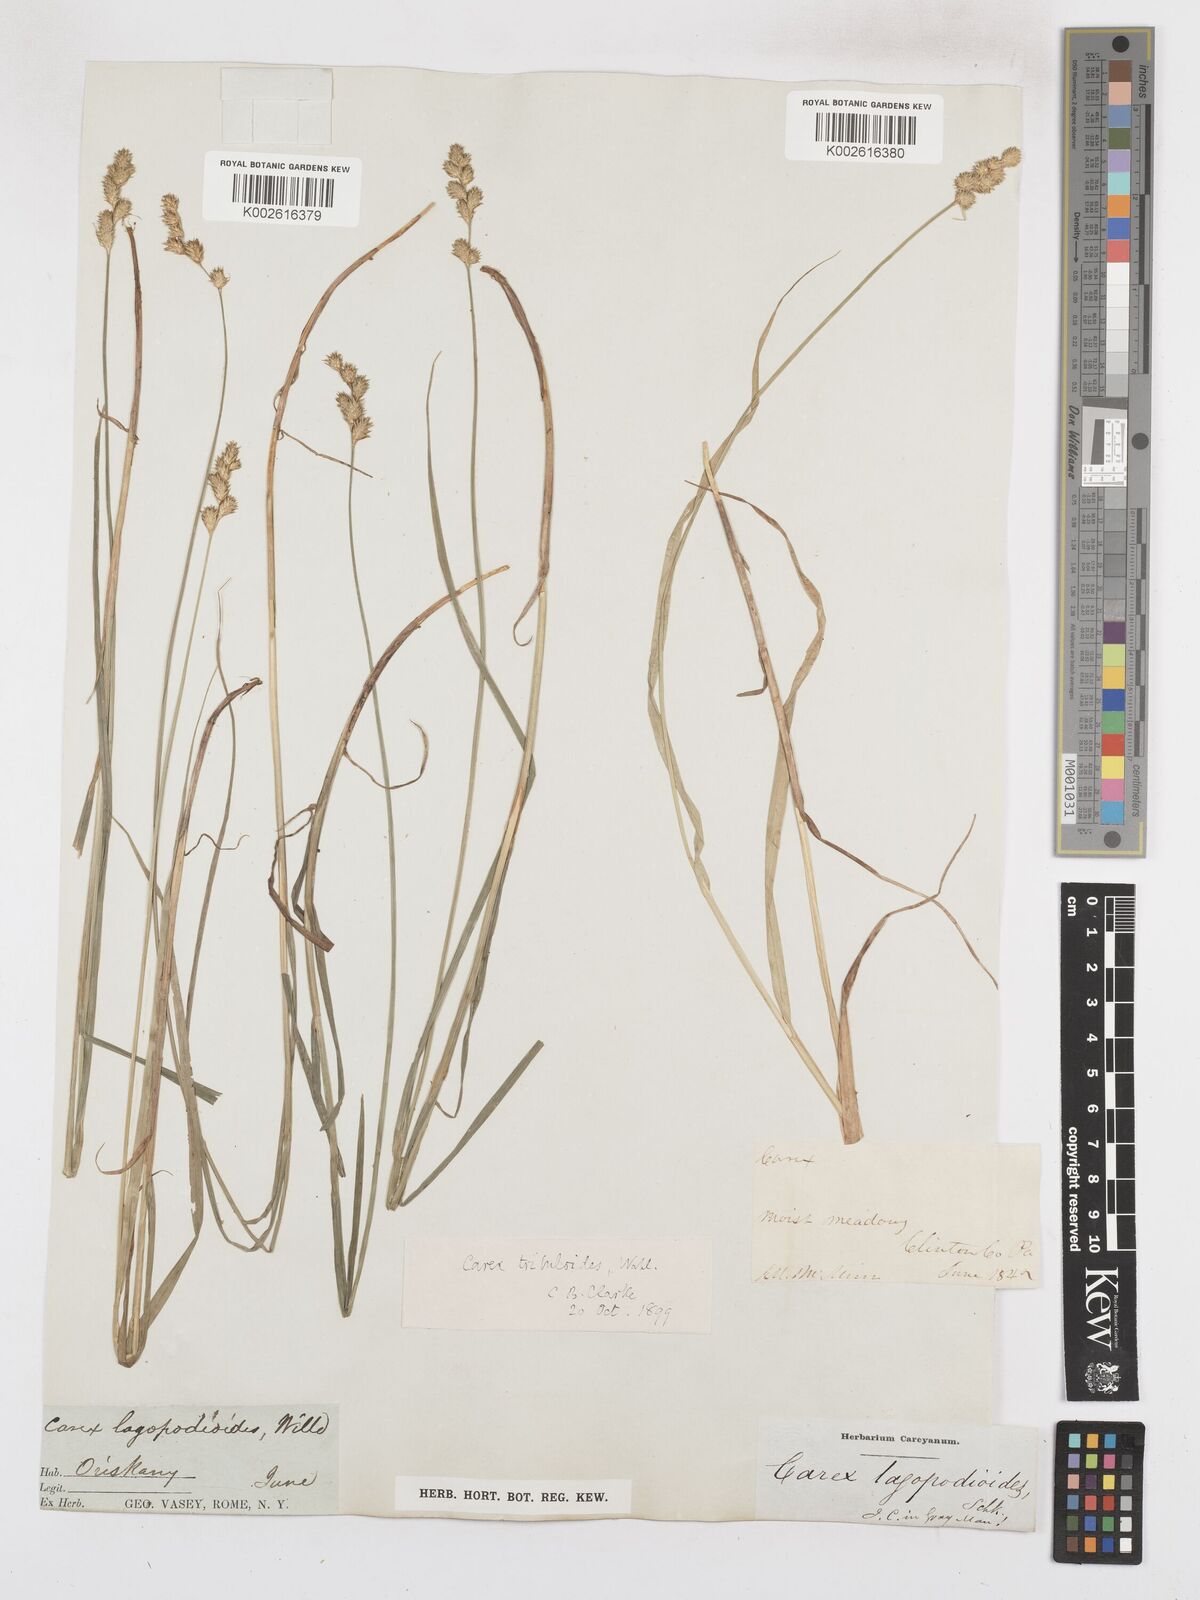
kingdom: Plantae
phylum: Tracheophyta
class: Liliopsida
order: Poales
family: Cyperaceae
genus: Carex
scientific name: Carex tribuloides
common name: Blunt broom sedge
